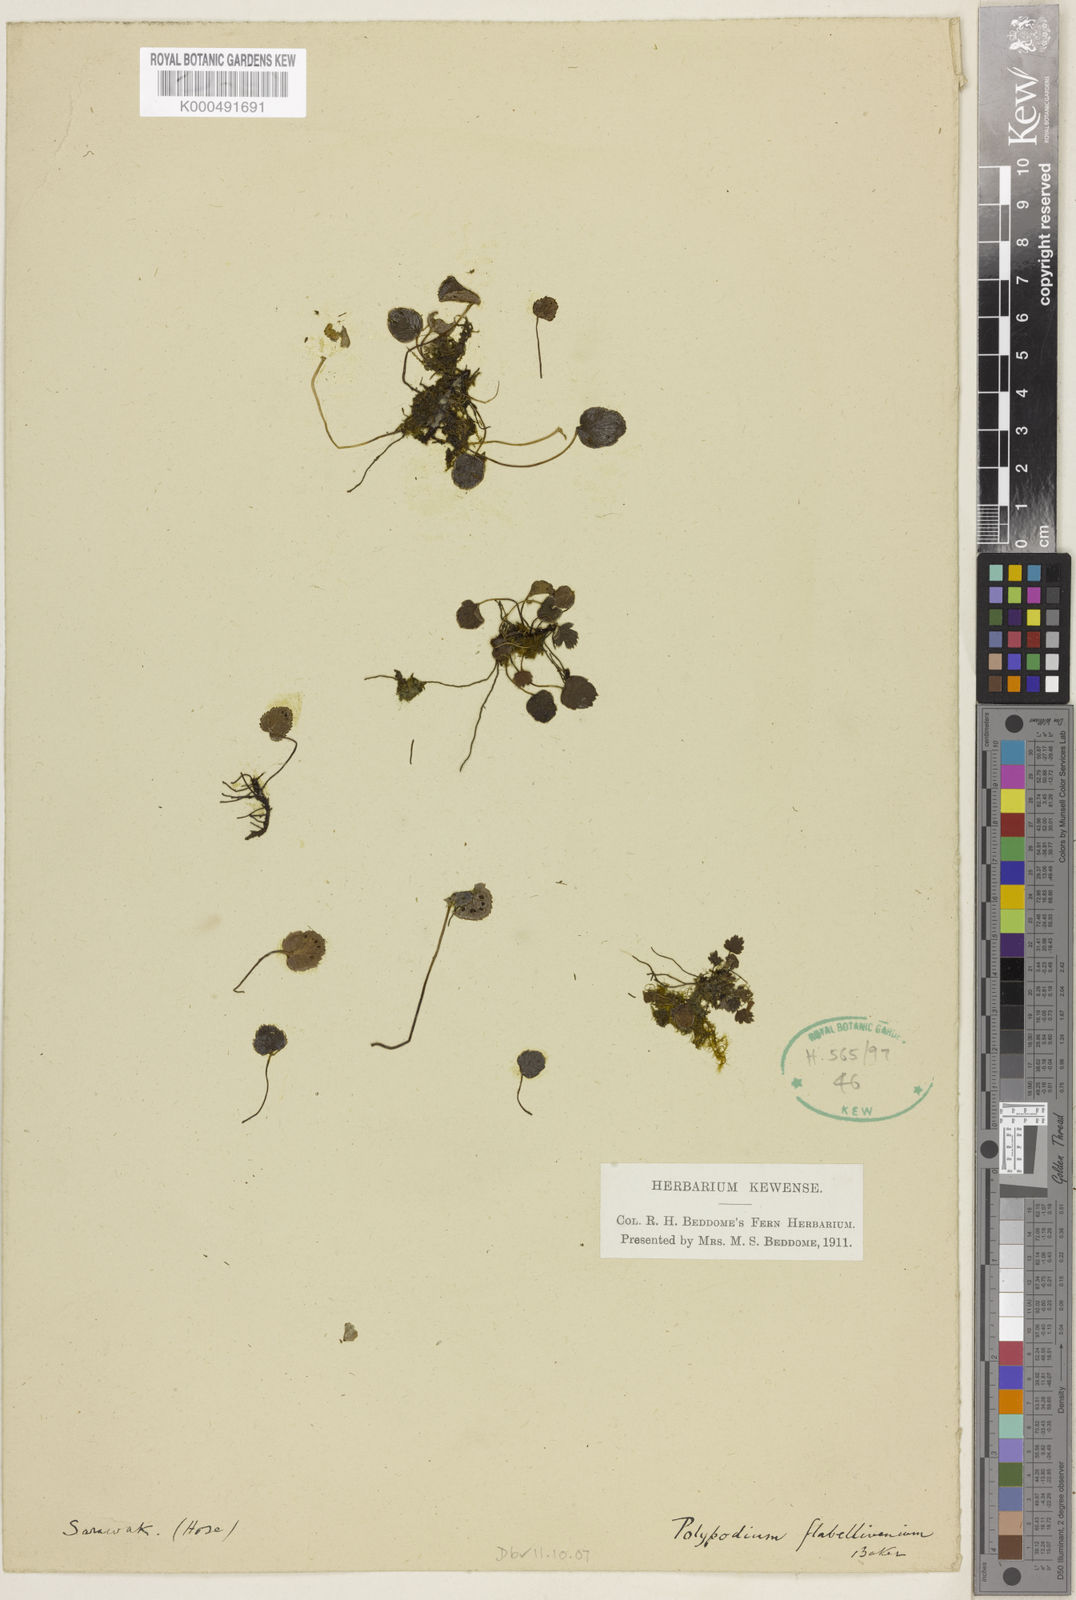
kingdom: Plantae
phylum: Tracheophyta
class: Polypodiopsida
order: Polypodiales
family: Pteridaceae
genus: Taenitis
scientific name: Taenitis flabellivenia
